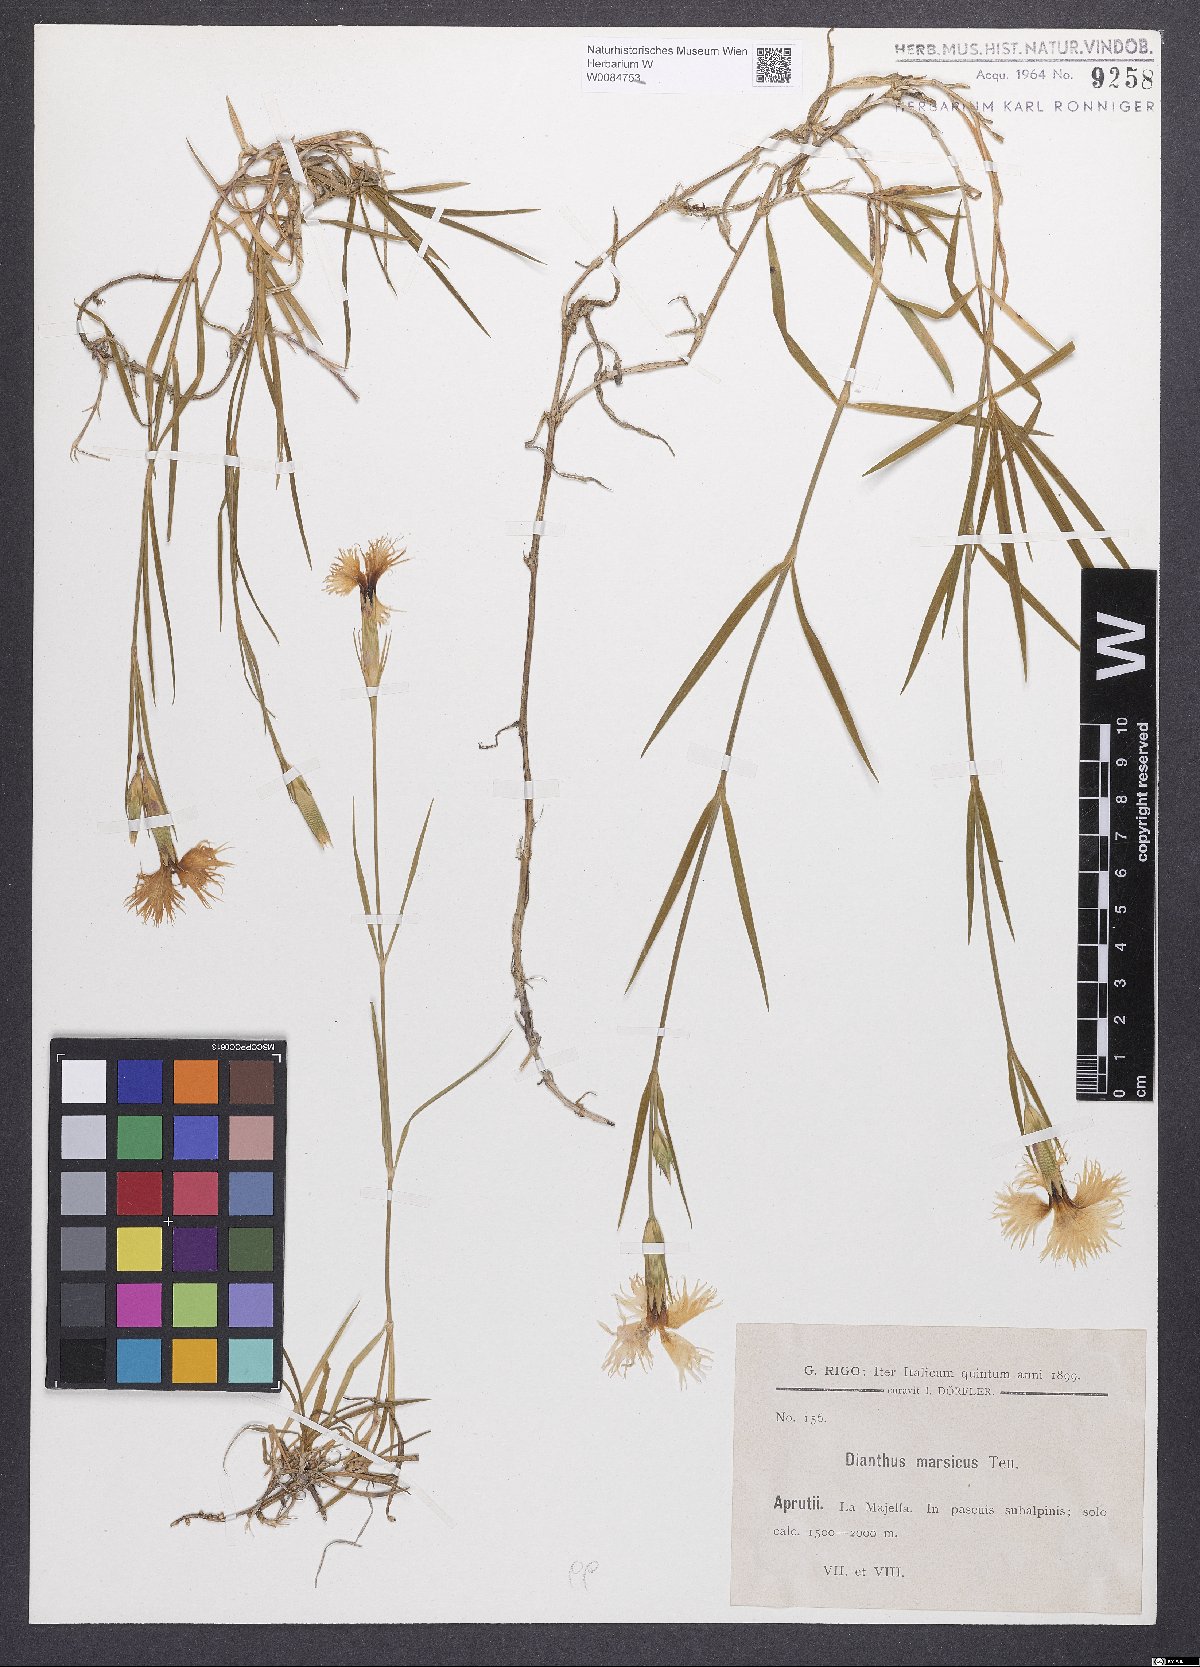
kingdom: Plantae
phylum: Tracheophyta
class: Magnoliopsida
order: Caryophyllales
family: Caryophyllaceae
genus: Dianthus
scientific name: Dianthus hyssopifolius
